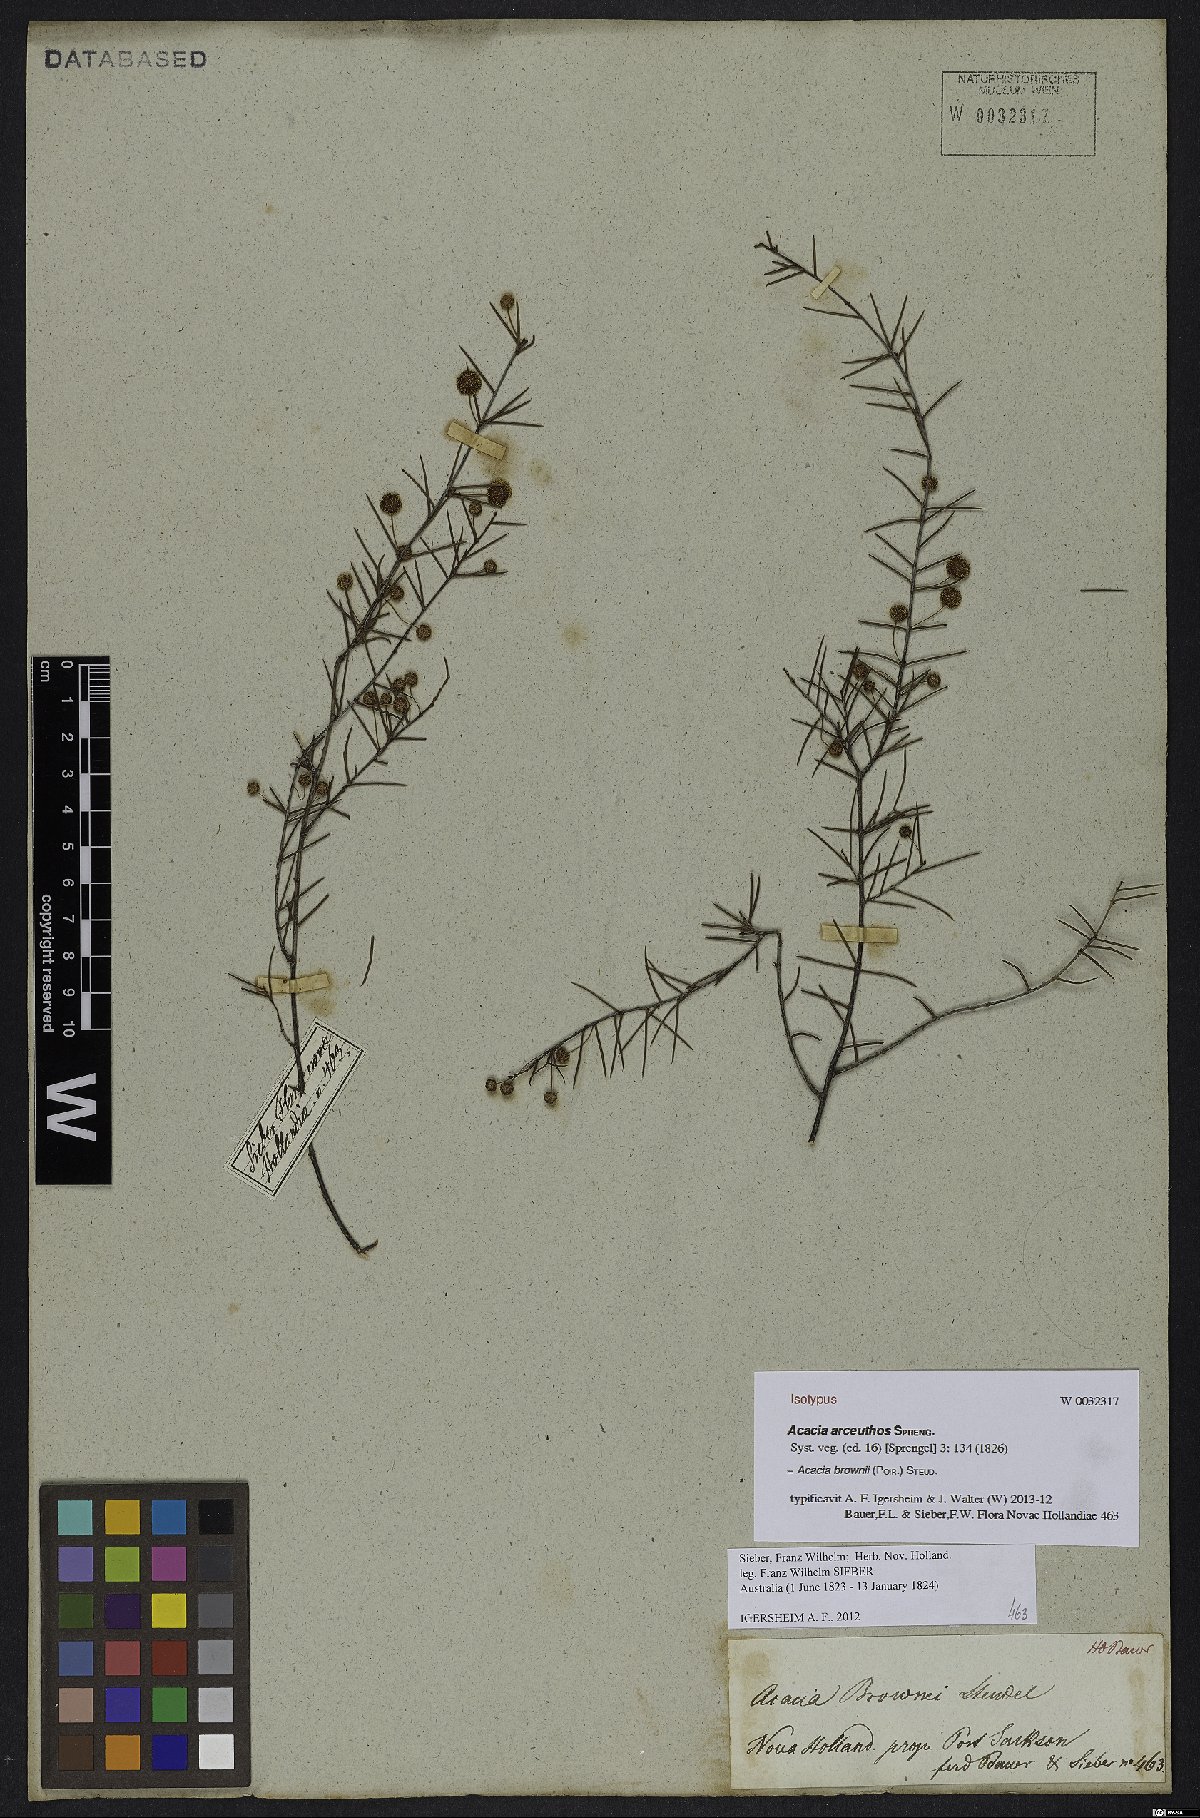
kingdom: Plantae
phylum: Tracheophyta
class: Magnoliopsida
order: Fabales
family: Fabaceae
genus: Acacia
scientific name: Acacia brownii
